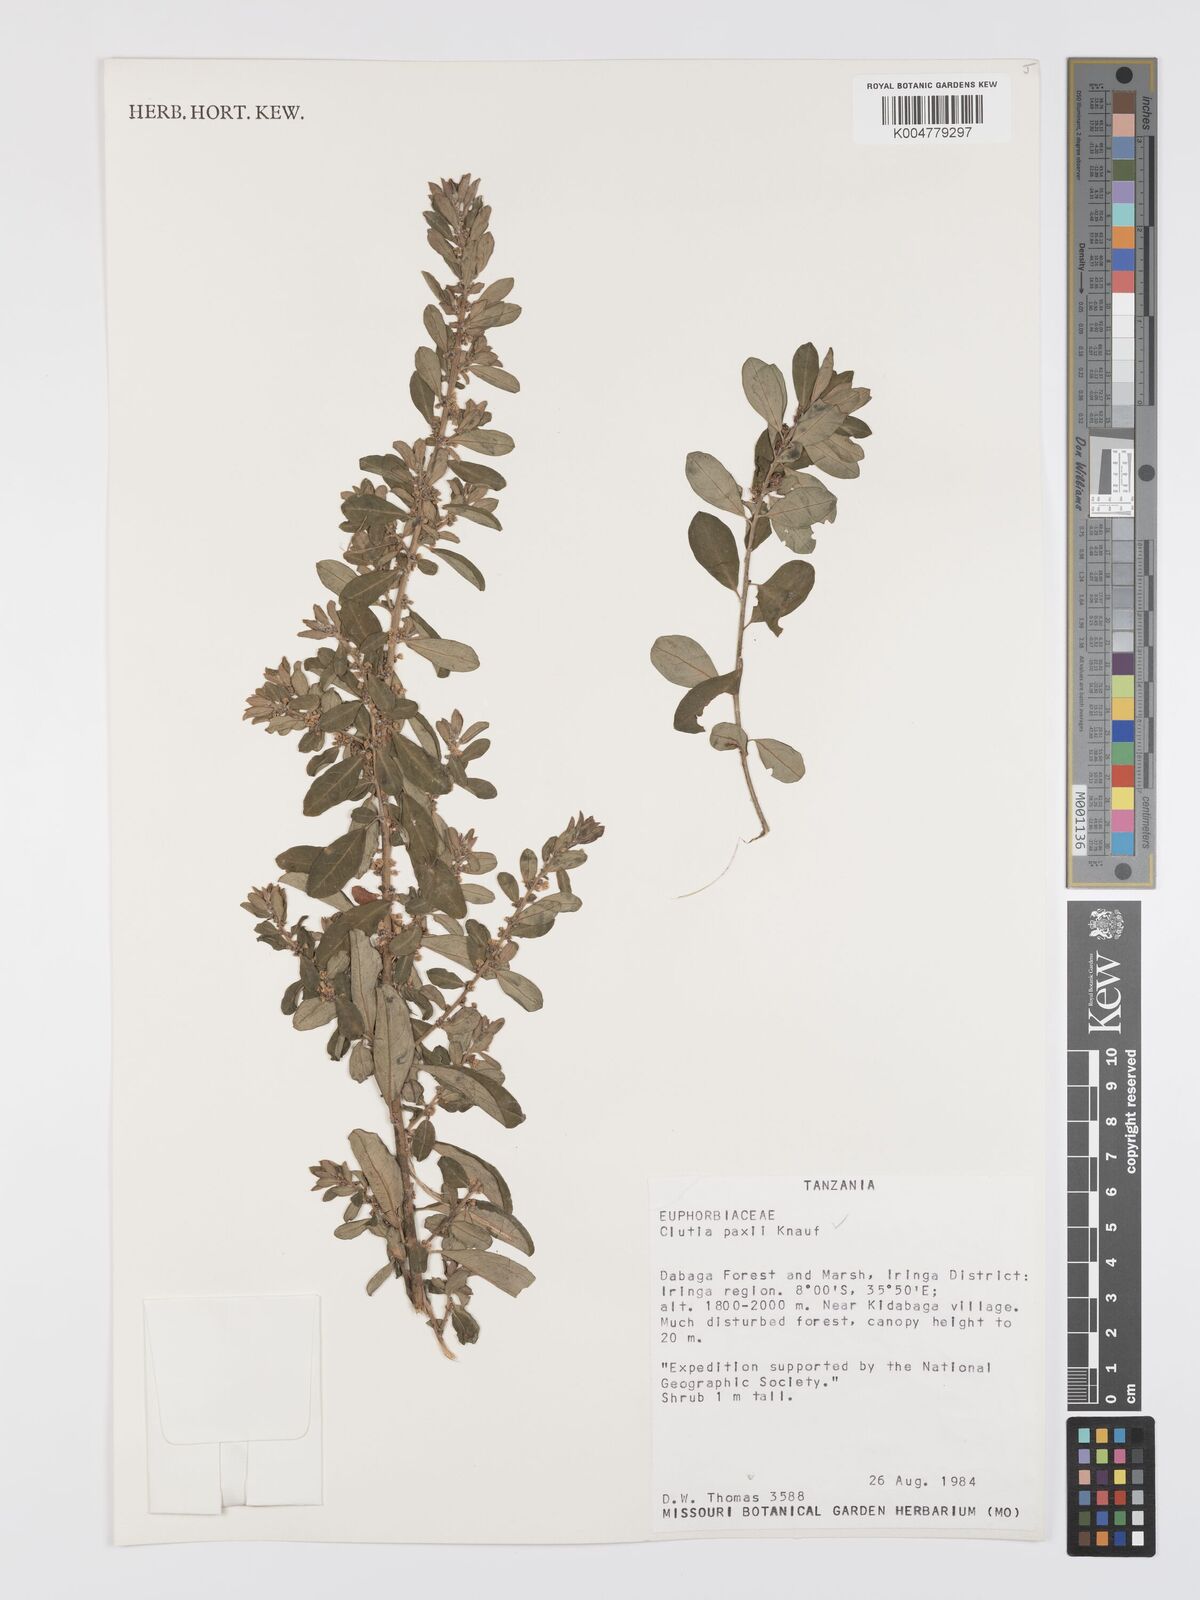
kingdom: Plantae
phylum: Tracheophyta
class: Magnoliopsida
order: Malpighiales
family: Peraceae
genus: Clutia
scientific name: Clutia paxii
